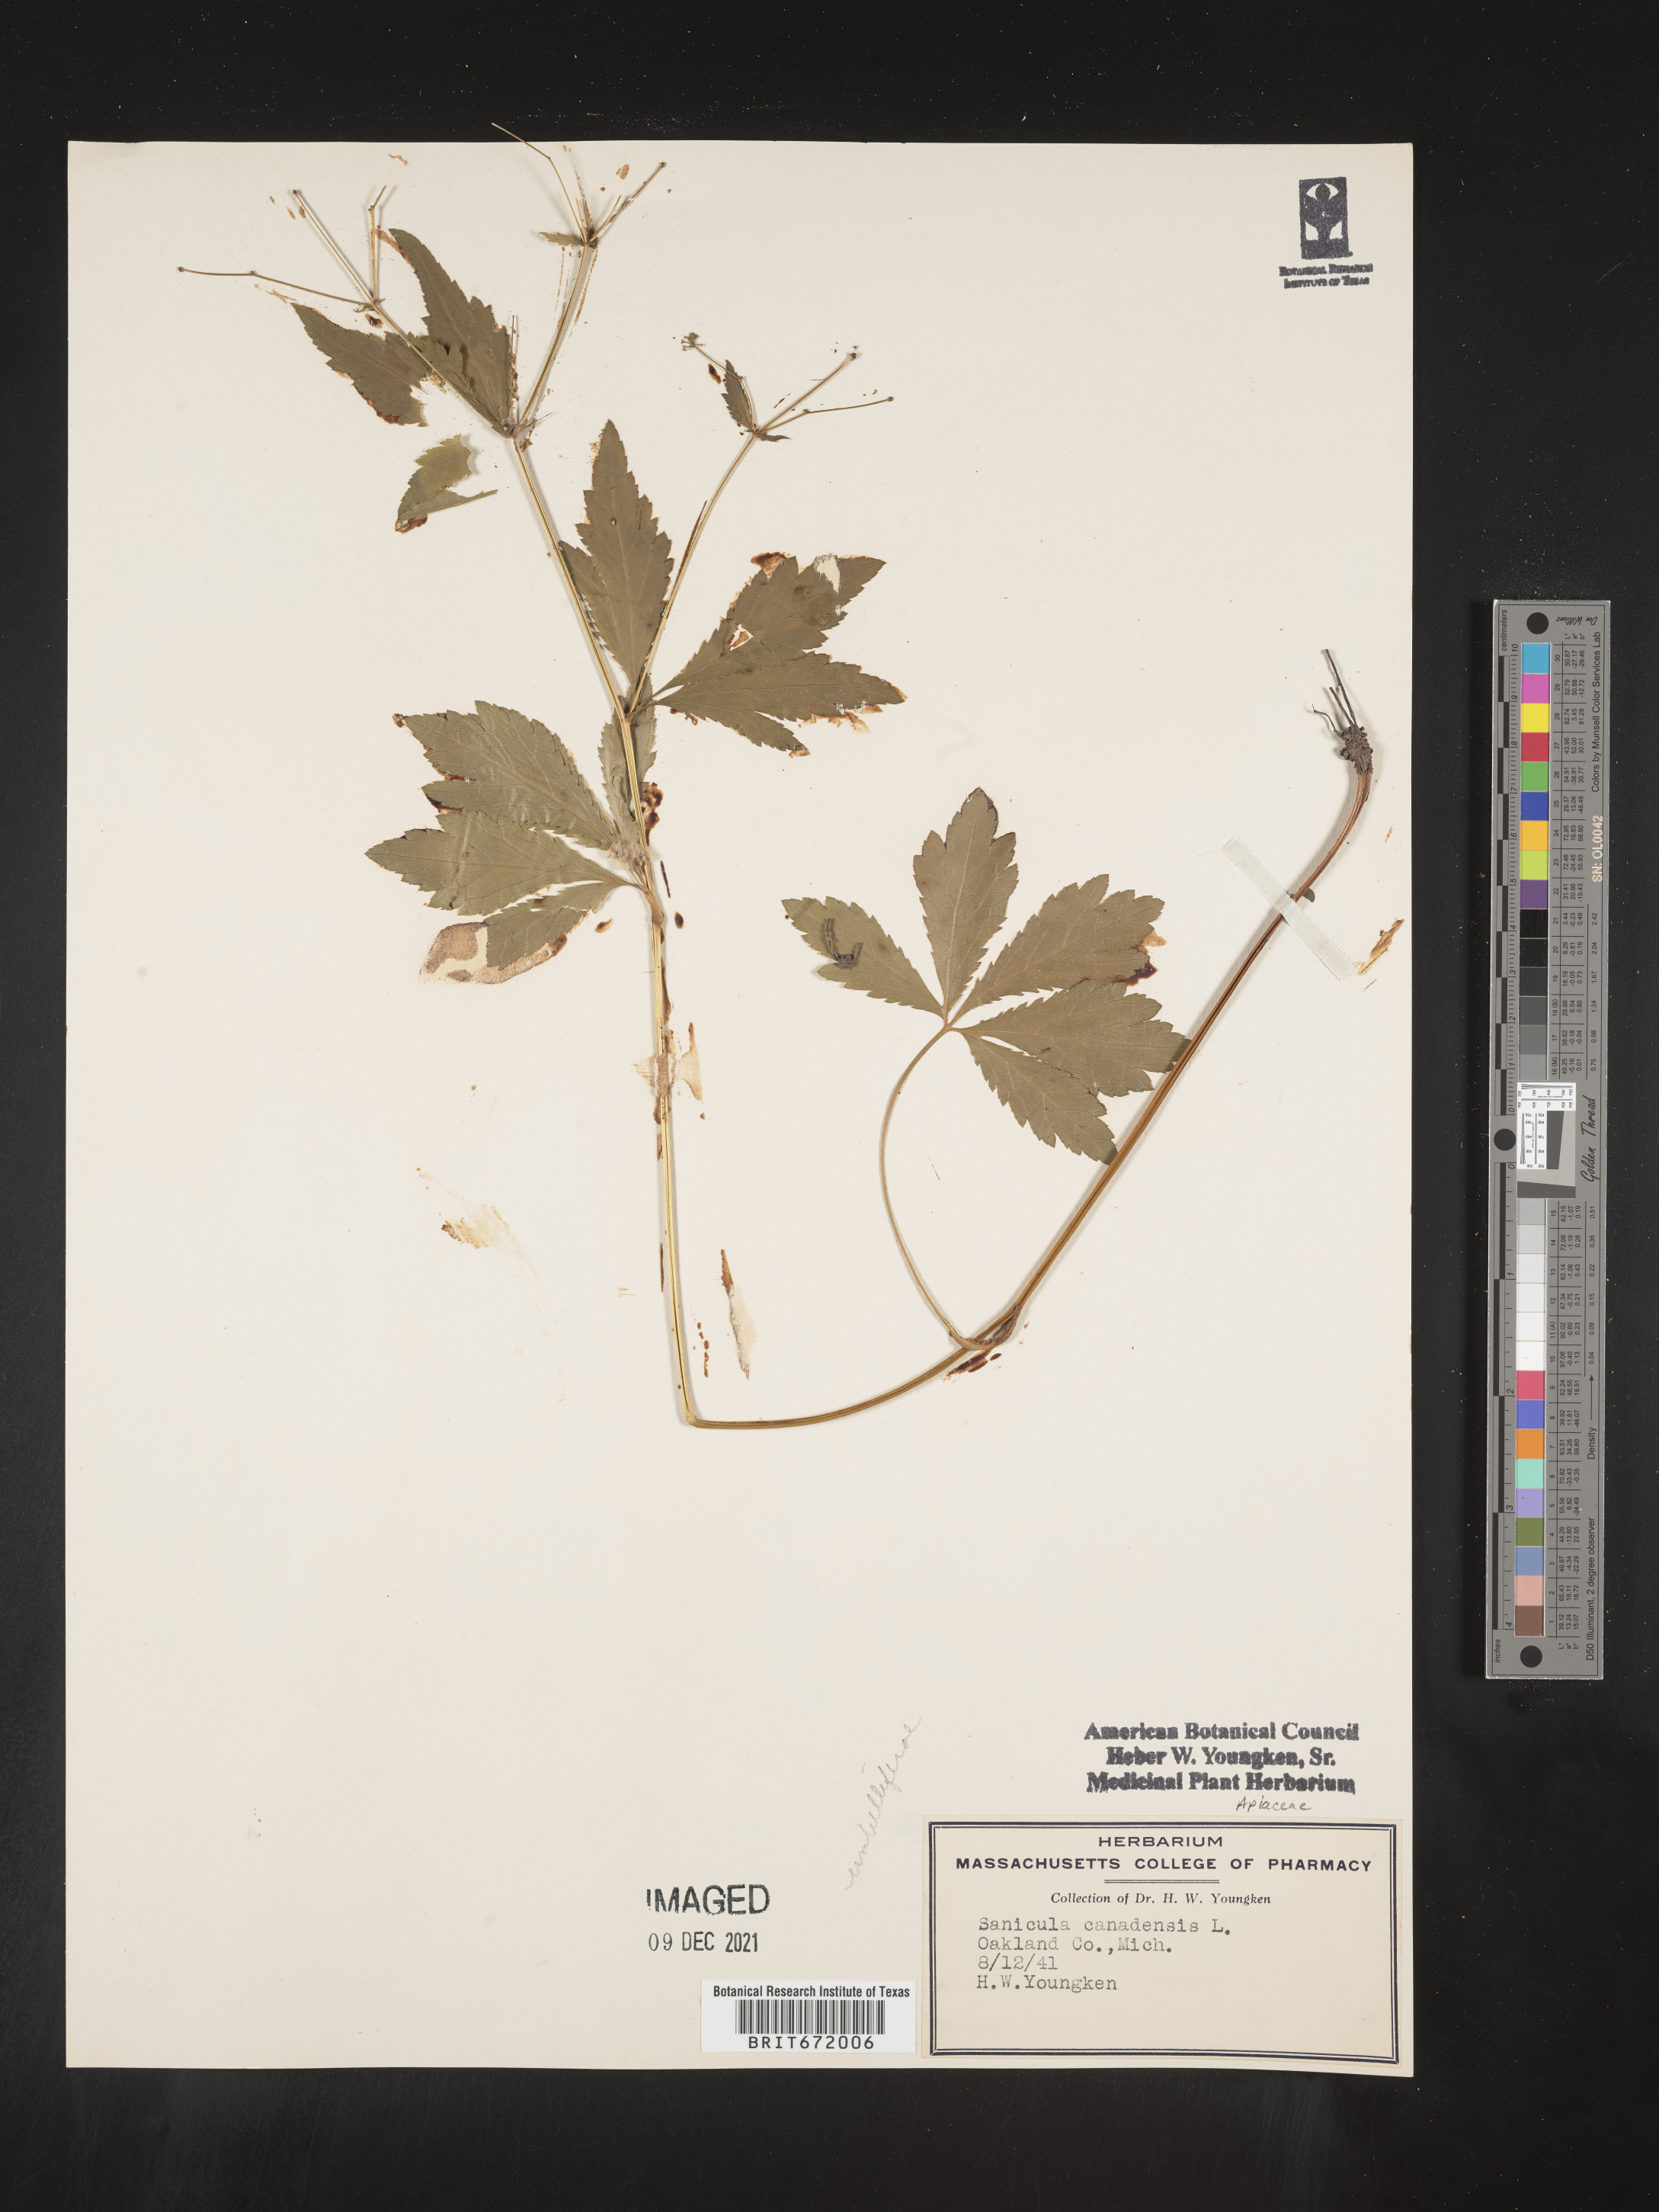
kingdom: Plantae
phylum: Tracheophyta
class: Magnoliopsida
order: Apiales
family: Apiaceae
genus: Sanicula
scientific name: Sanicula canadensis
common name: Canada sanicle
